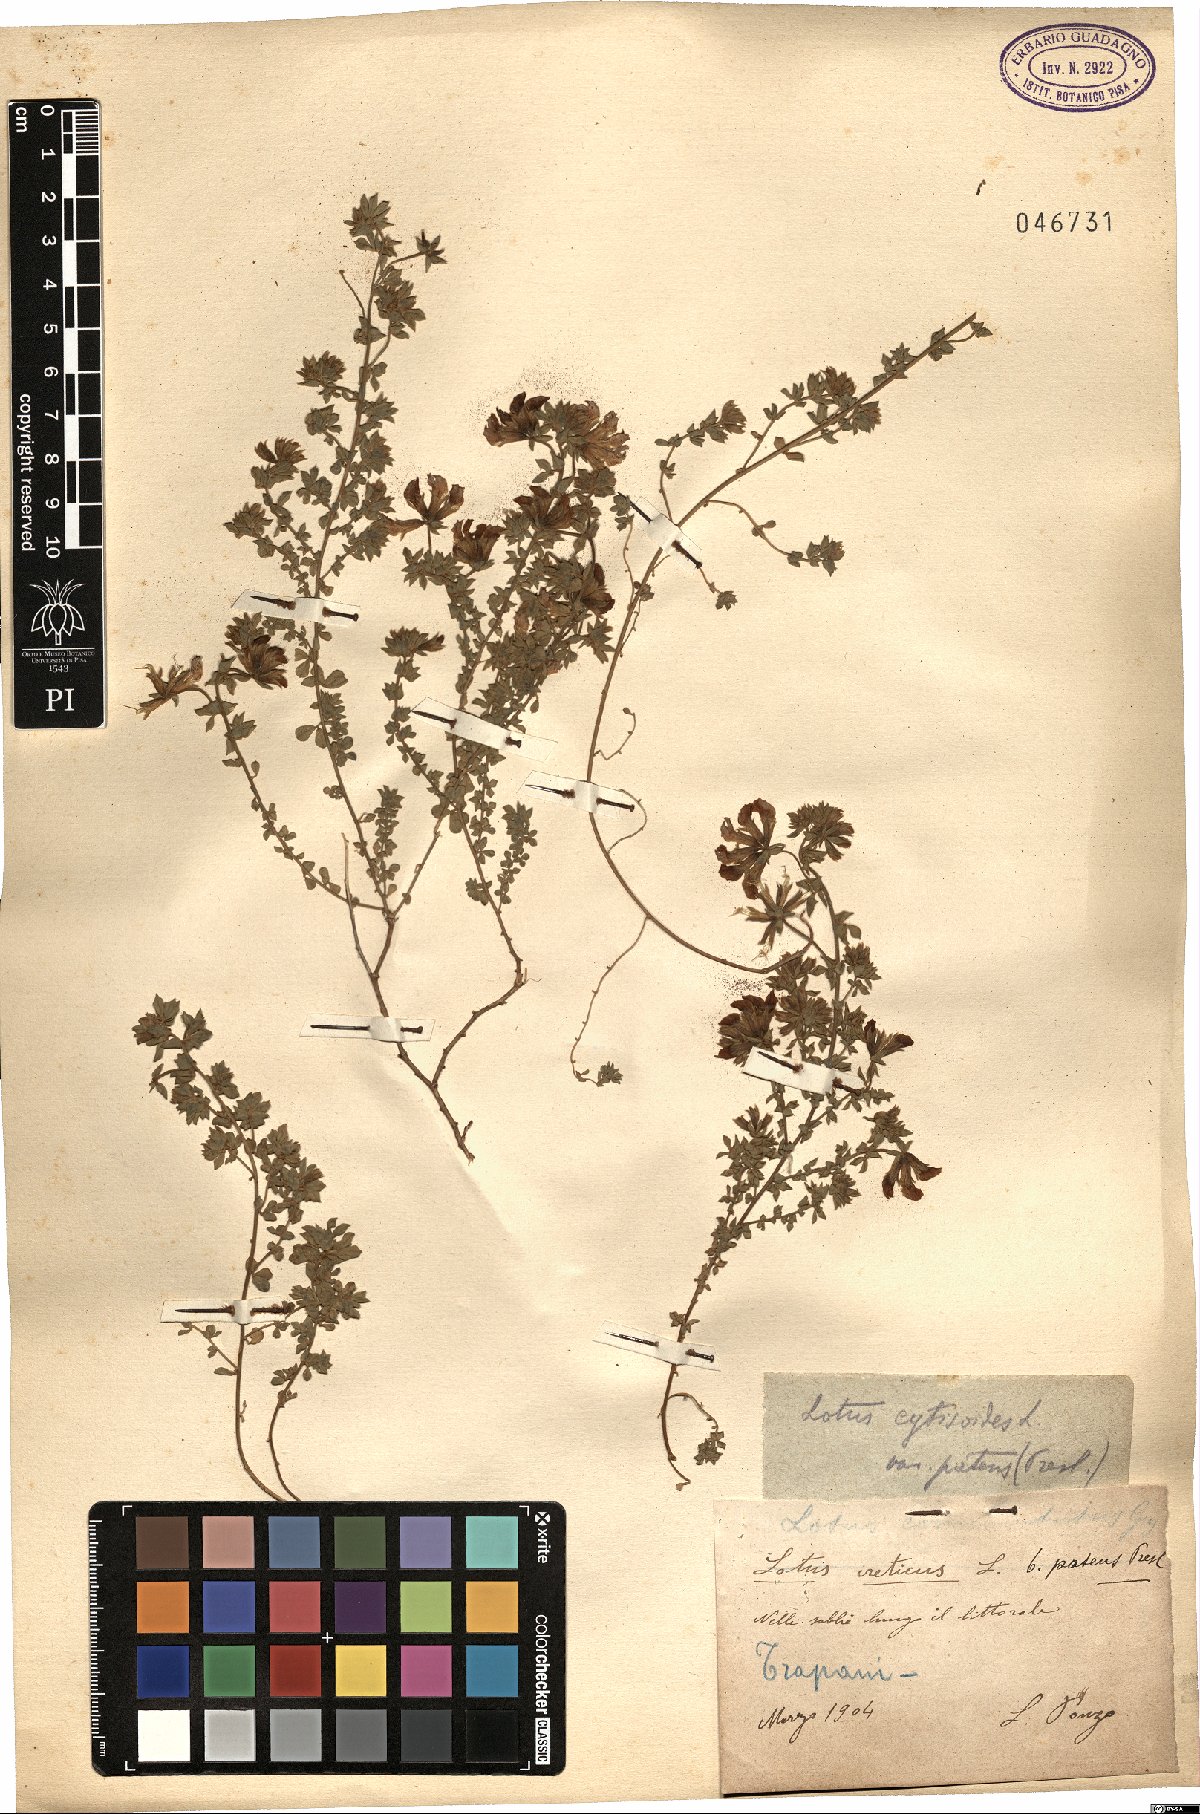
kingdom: Plantae
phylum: Tracheophyta
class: Magnoliopsida
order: Fabales
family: Fabaceae
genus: Lotus
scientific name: Lotus cytisoides
